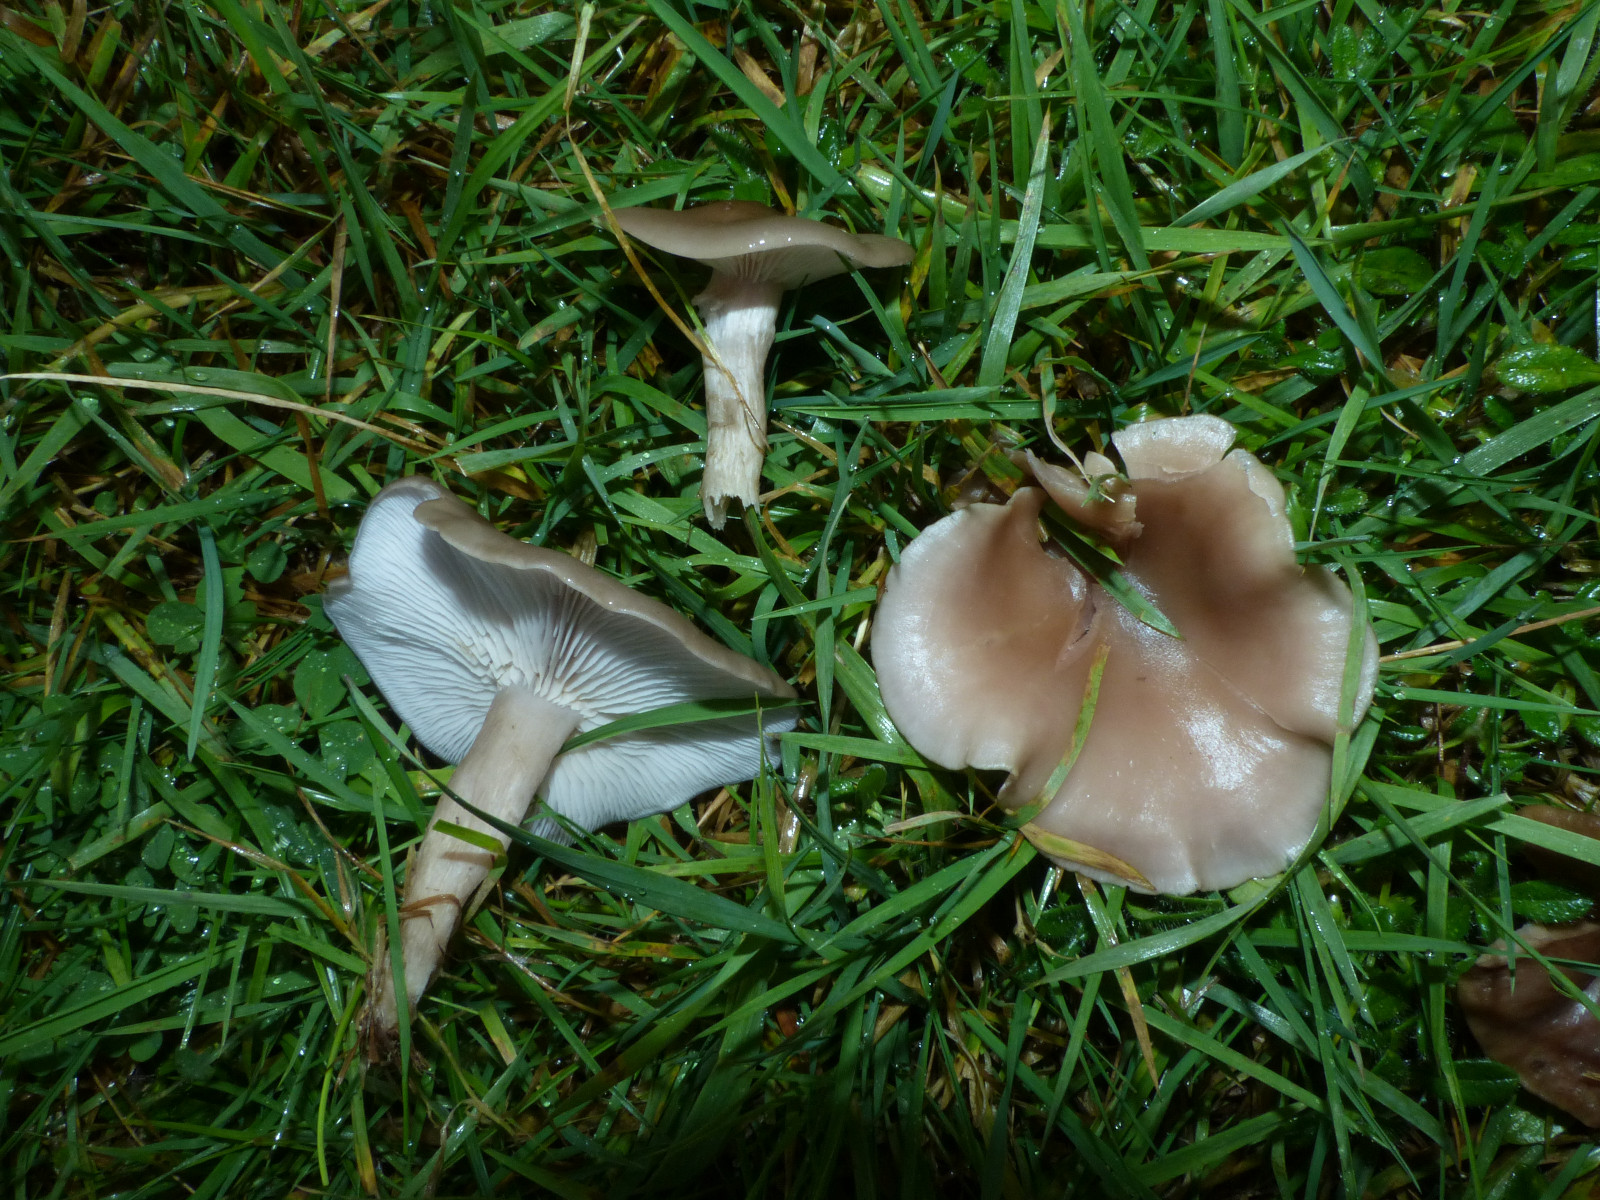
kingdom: Fungi
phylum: Basidiomycota
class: Agaricomycetes
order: Agaricales
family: Lyophyllaceae
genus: Calocybe
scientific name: Calocybe carnea
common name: rosa fagerhat
